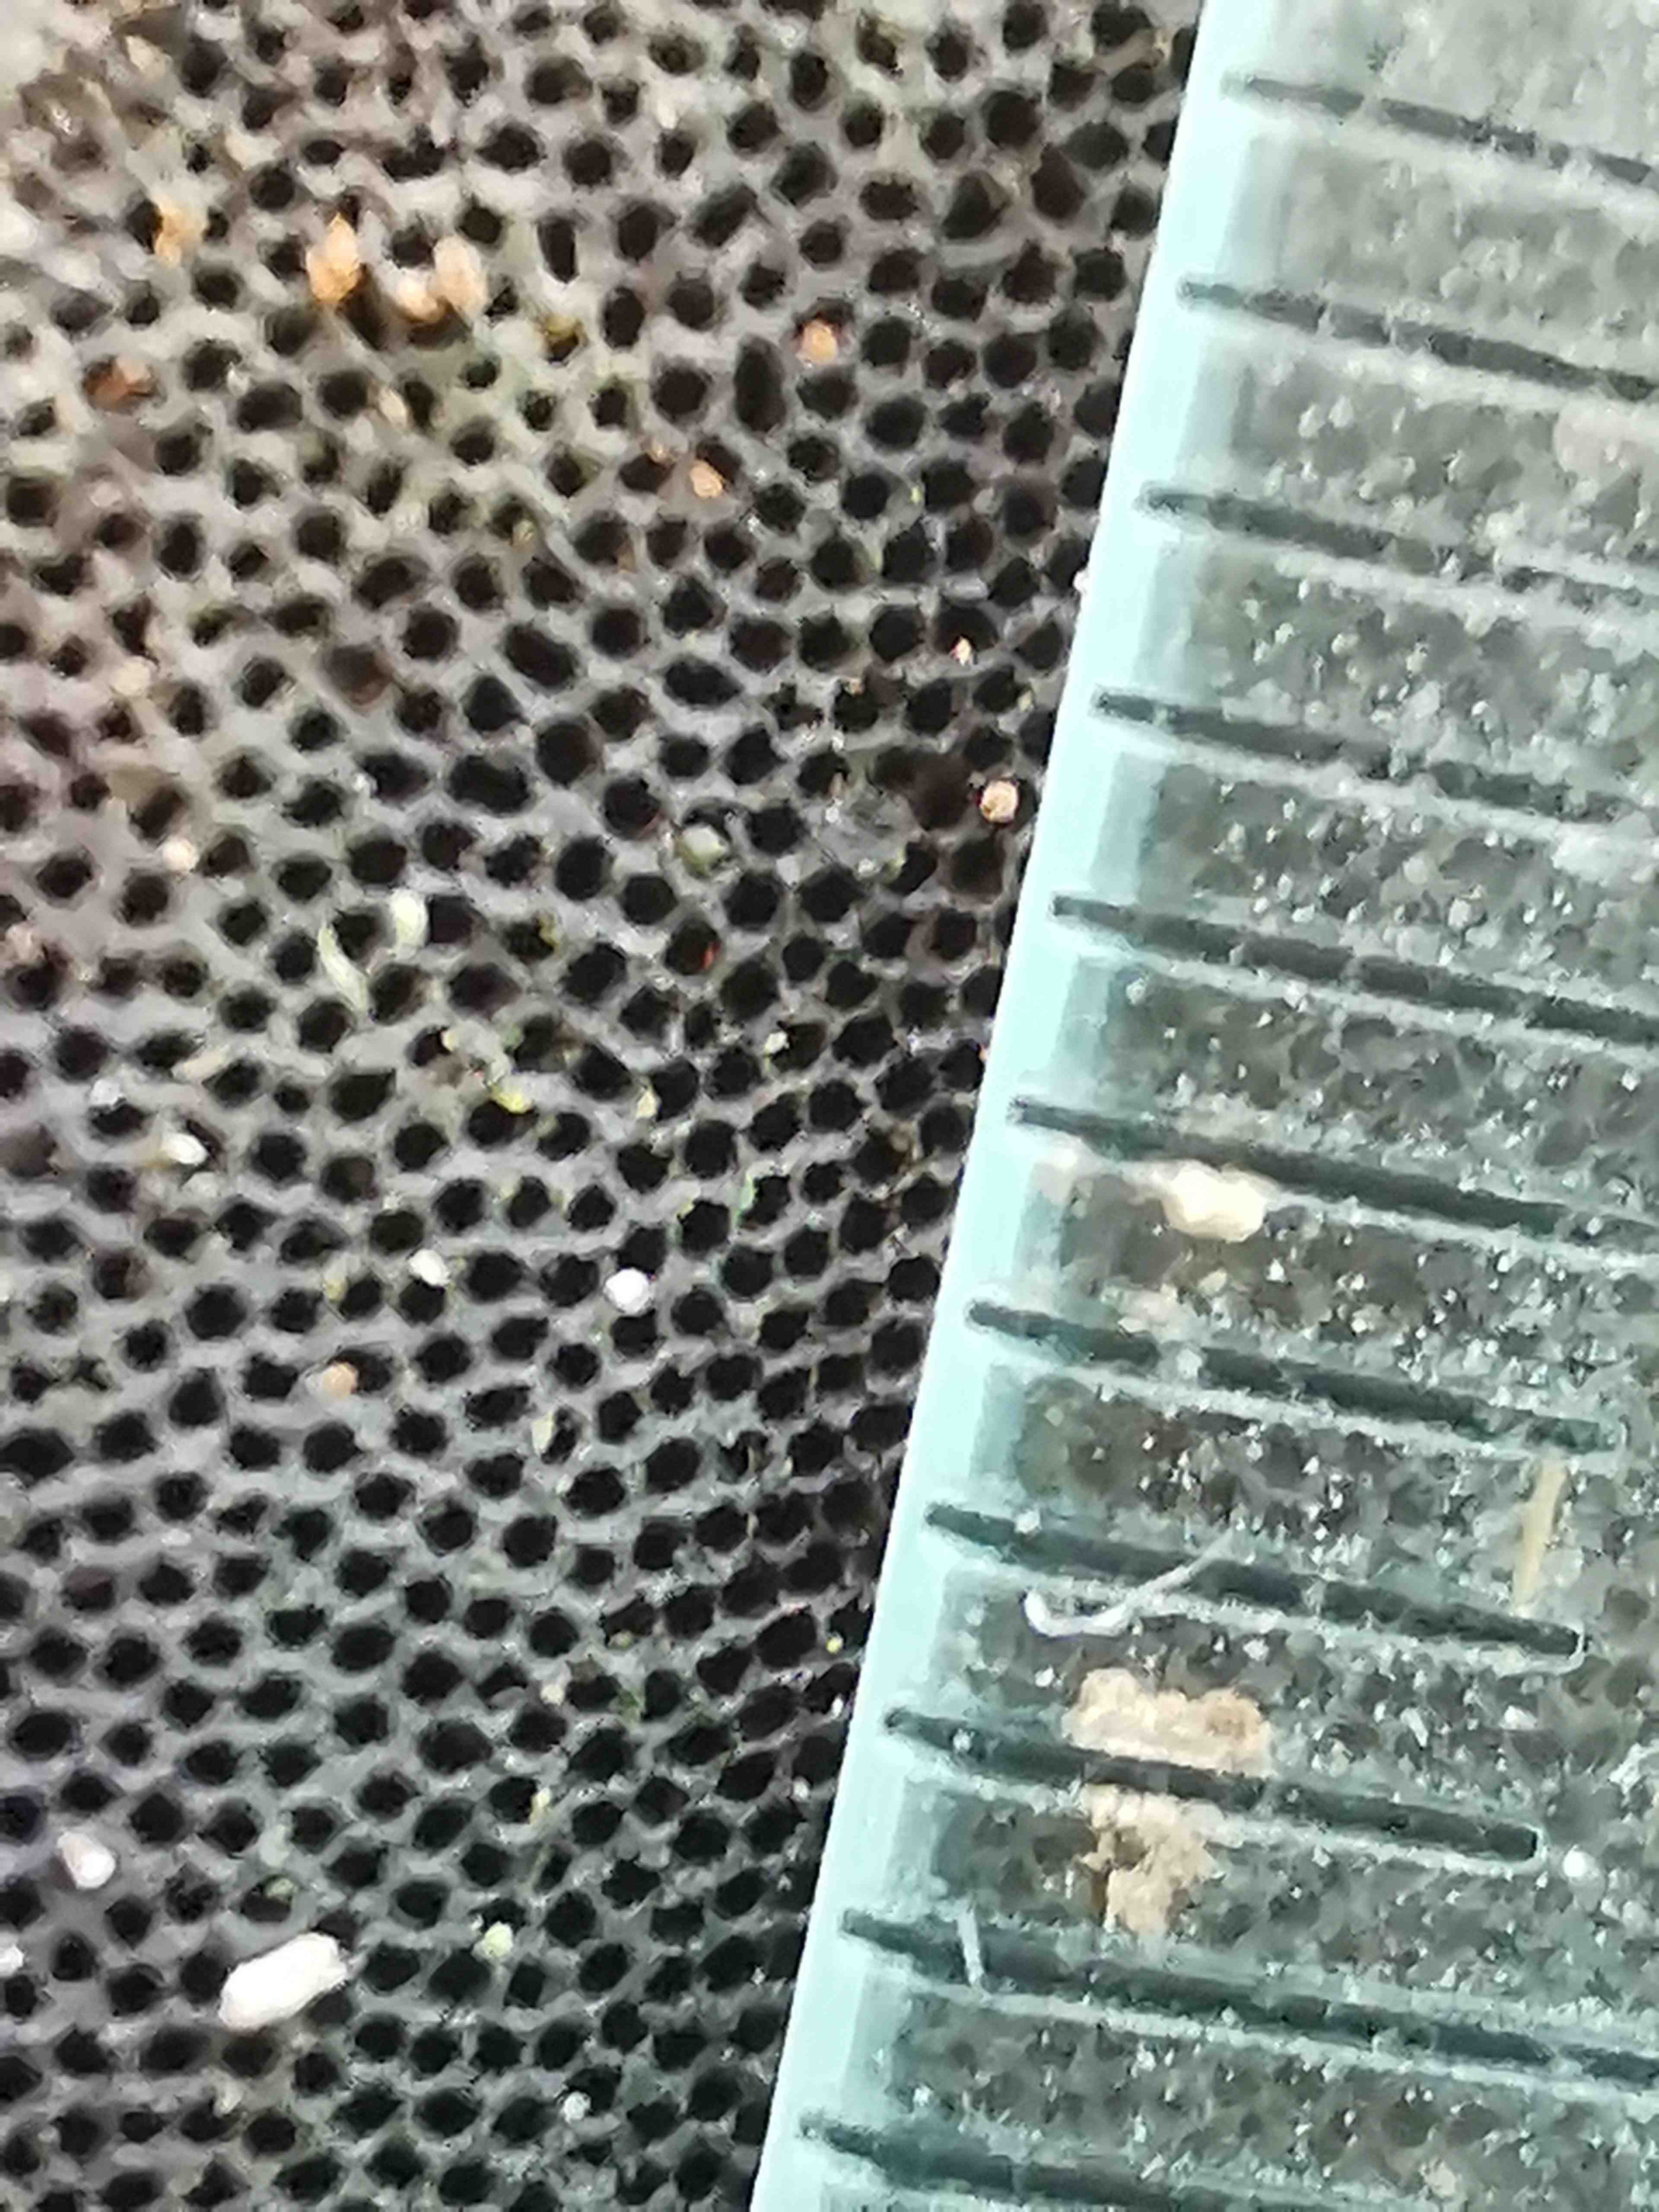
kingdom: Fungi
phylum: Basidiomycota
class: Agaricomycetes
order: Polyporales
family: Polyporaceae
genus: Fomes
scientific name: Fomes fomentarius
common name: tøndersvamp
